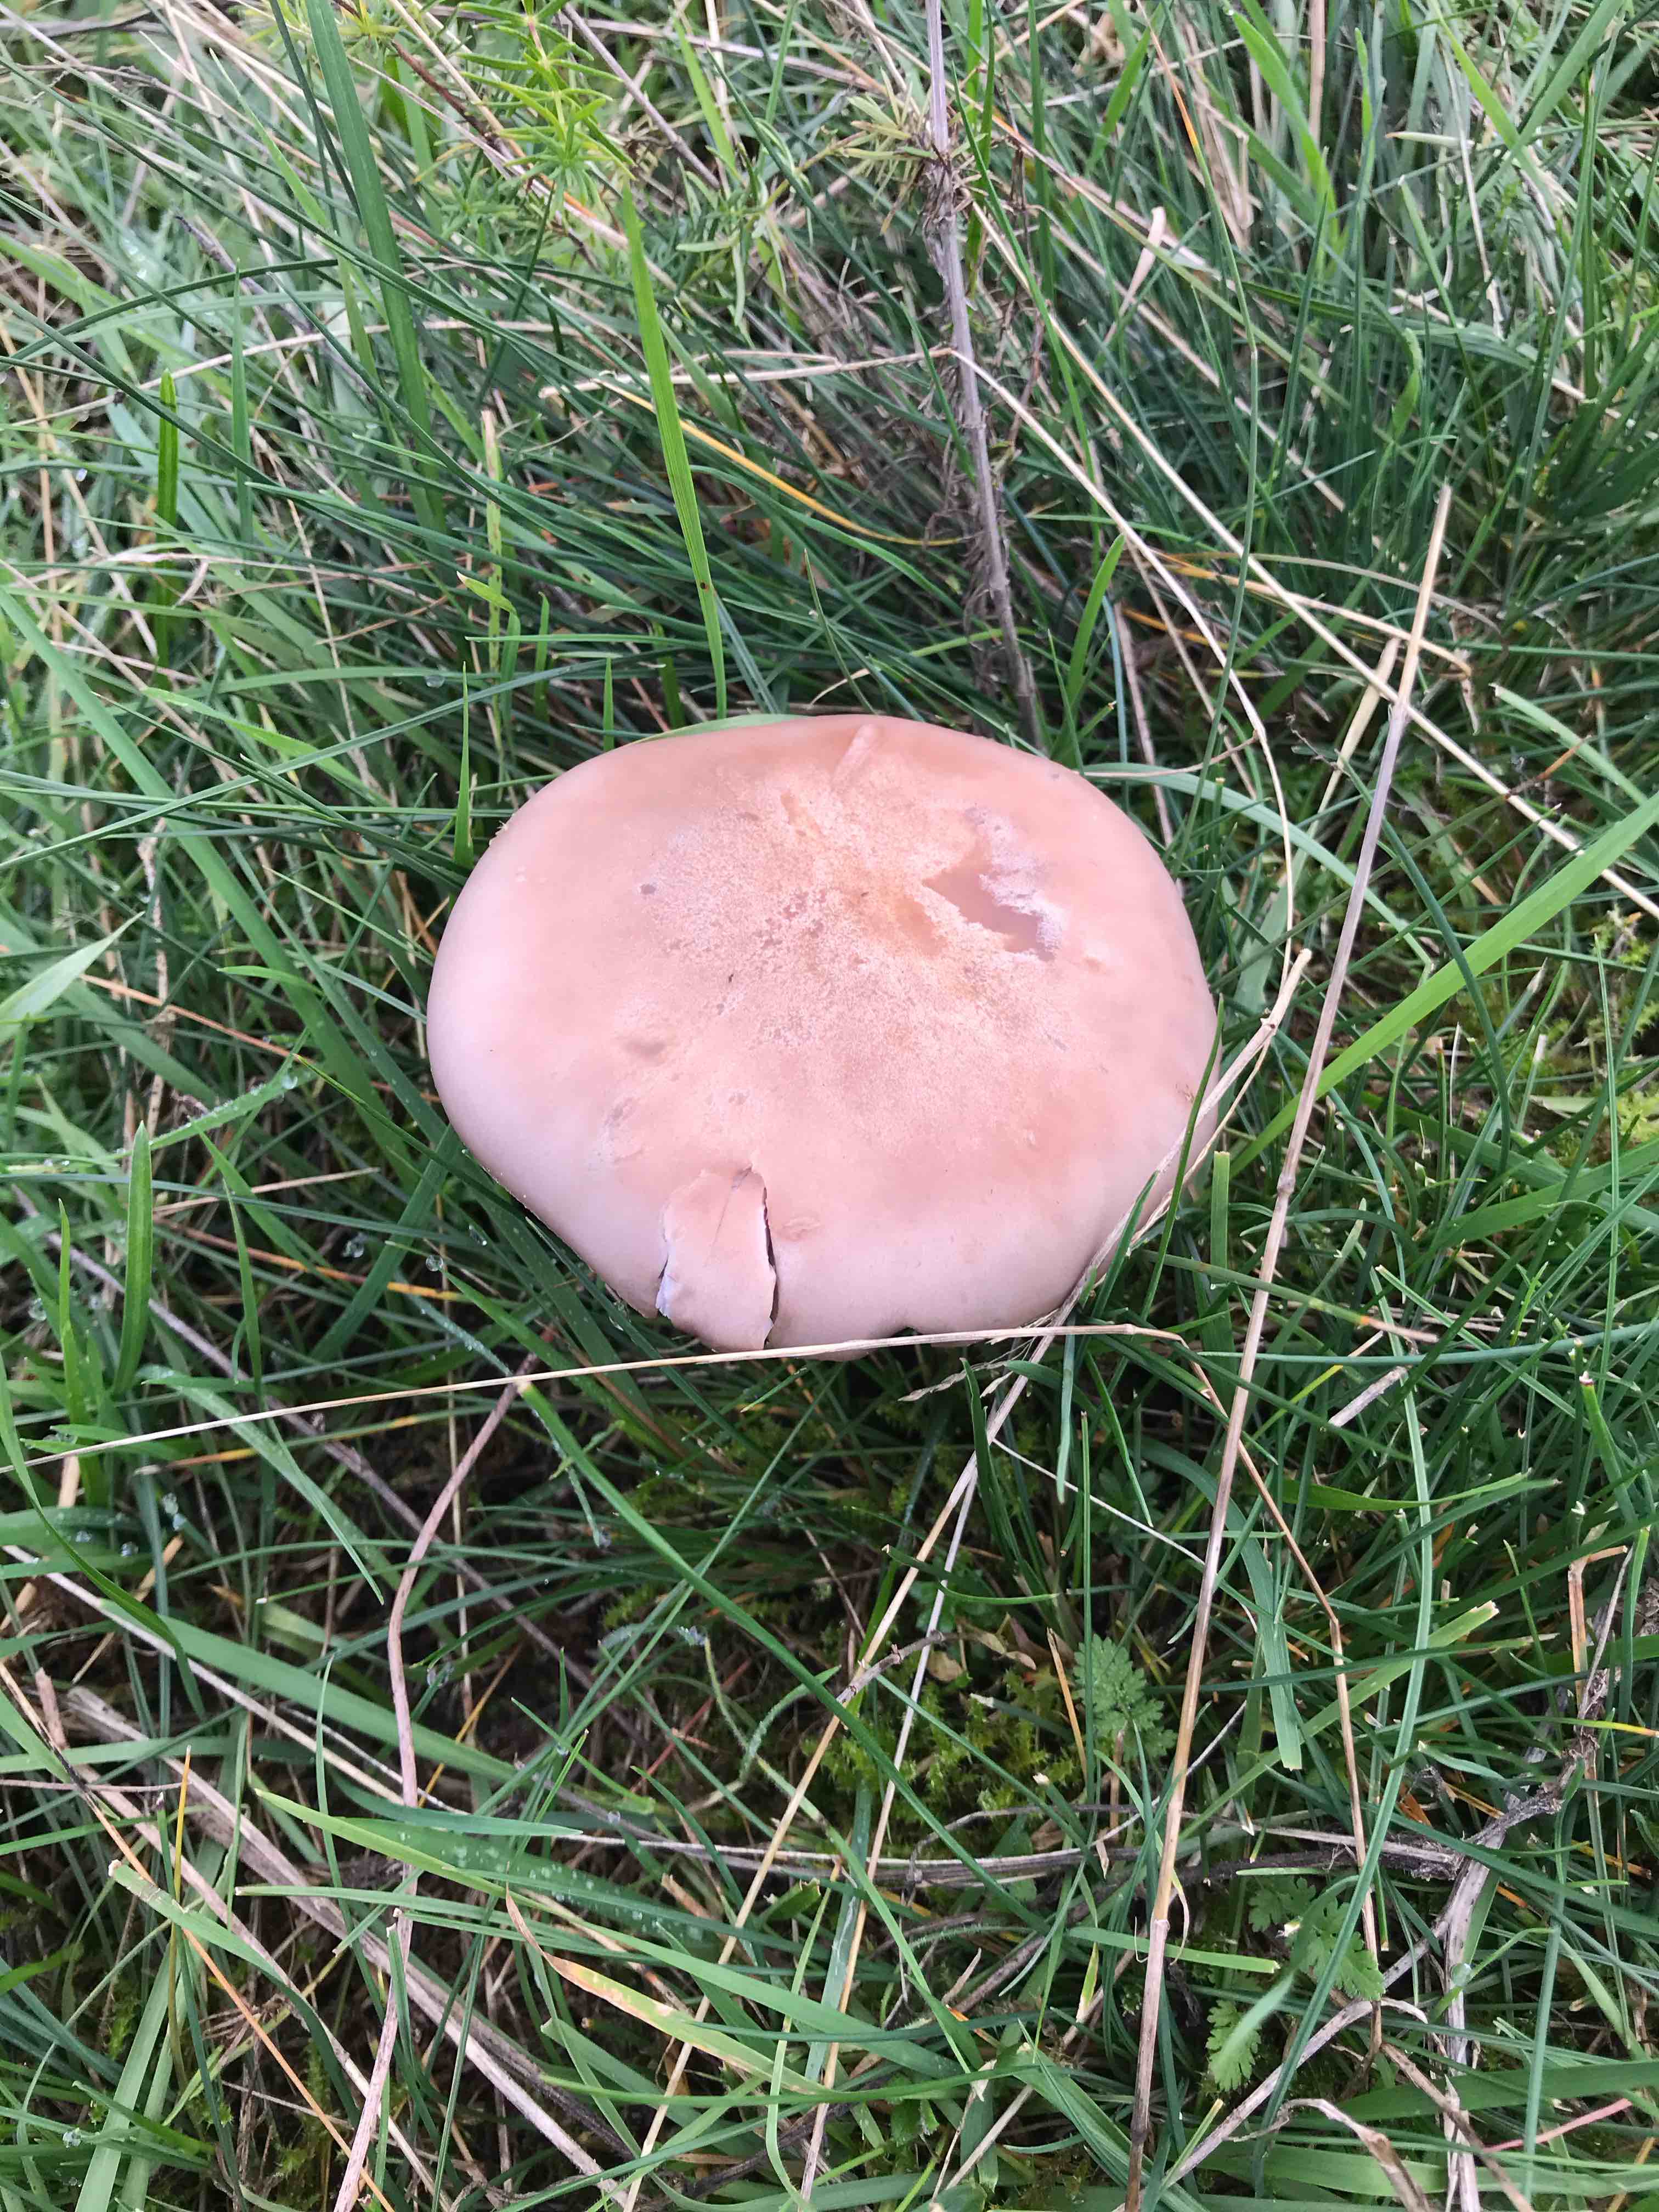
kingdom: Fungi
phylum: Basidiomycota
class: Agaricomycetes
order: Agaricales
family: Tricholomataceae
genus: Lepista
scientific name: Lepista nuda
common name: violet hekseringshat
